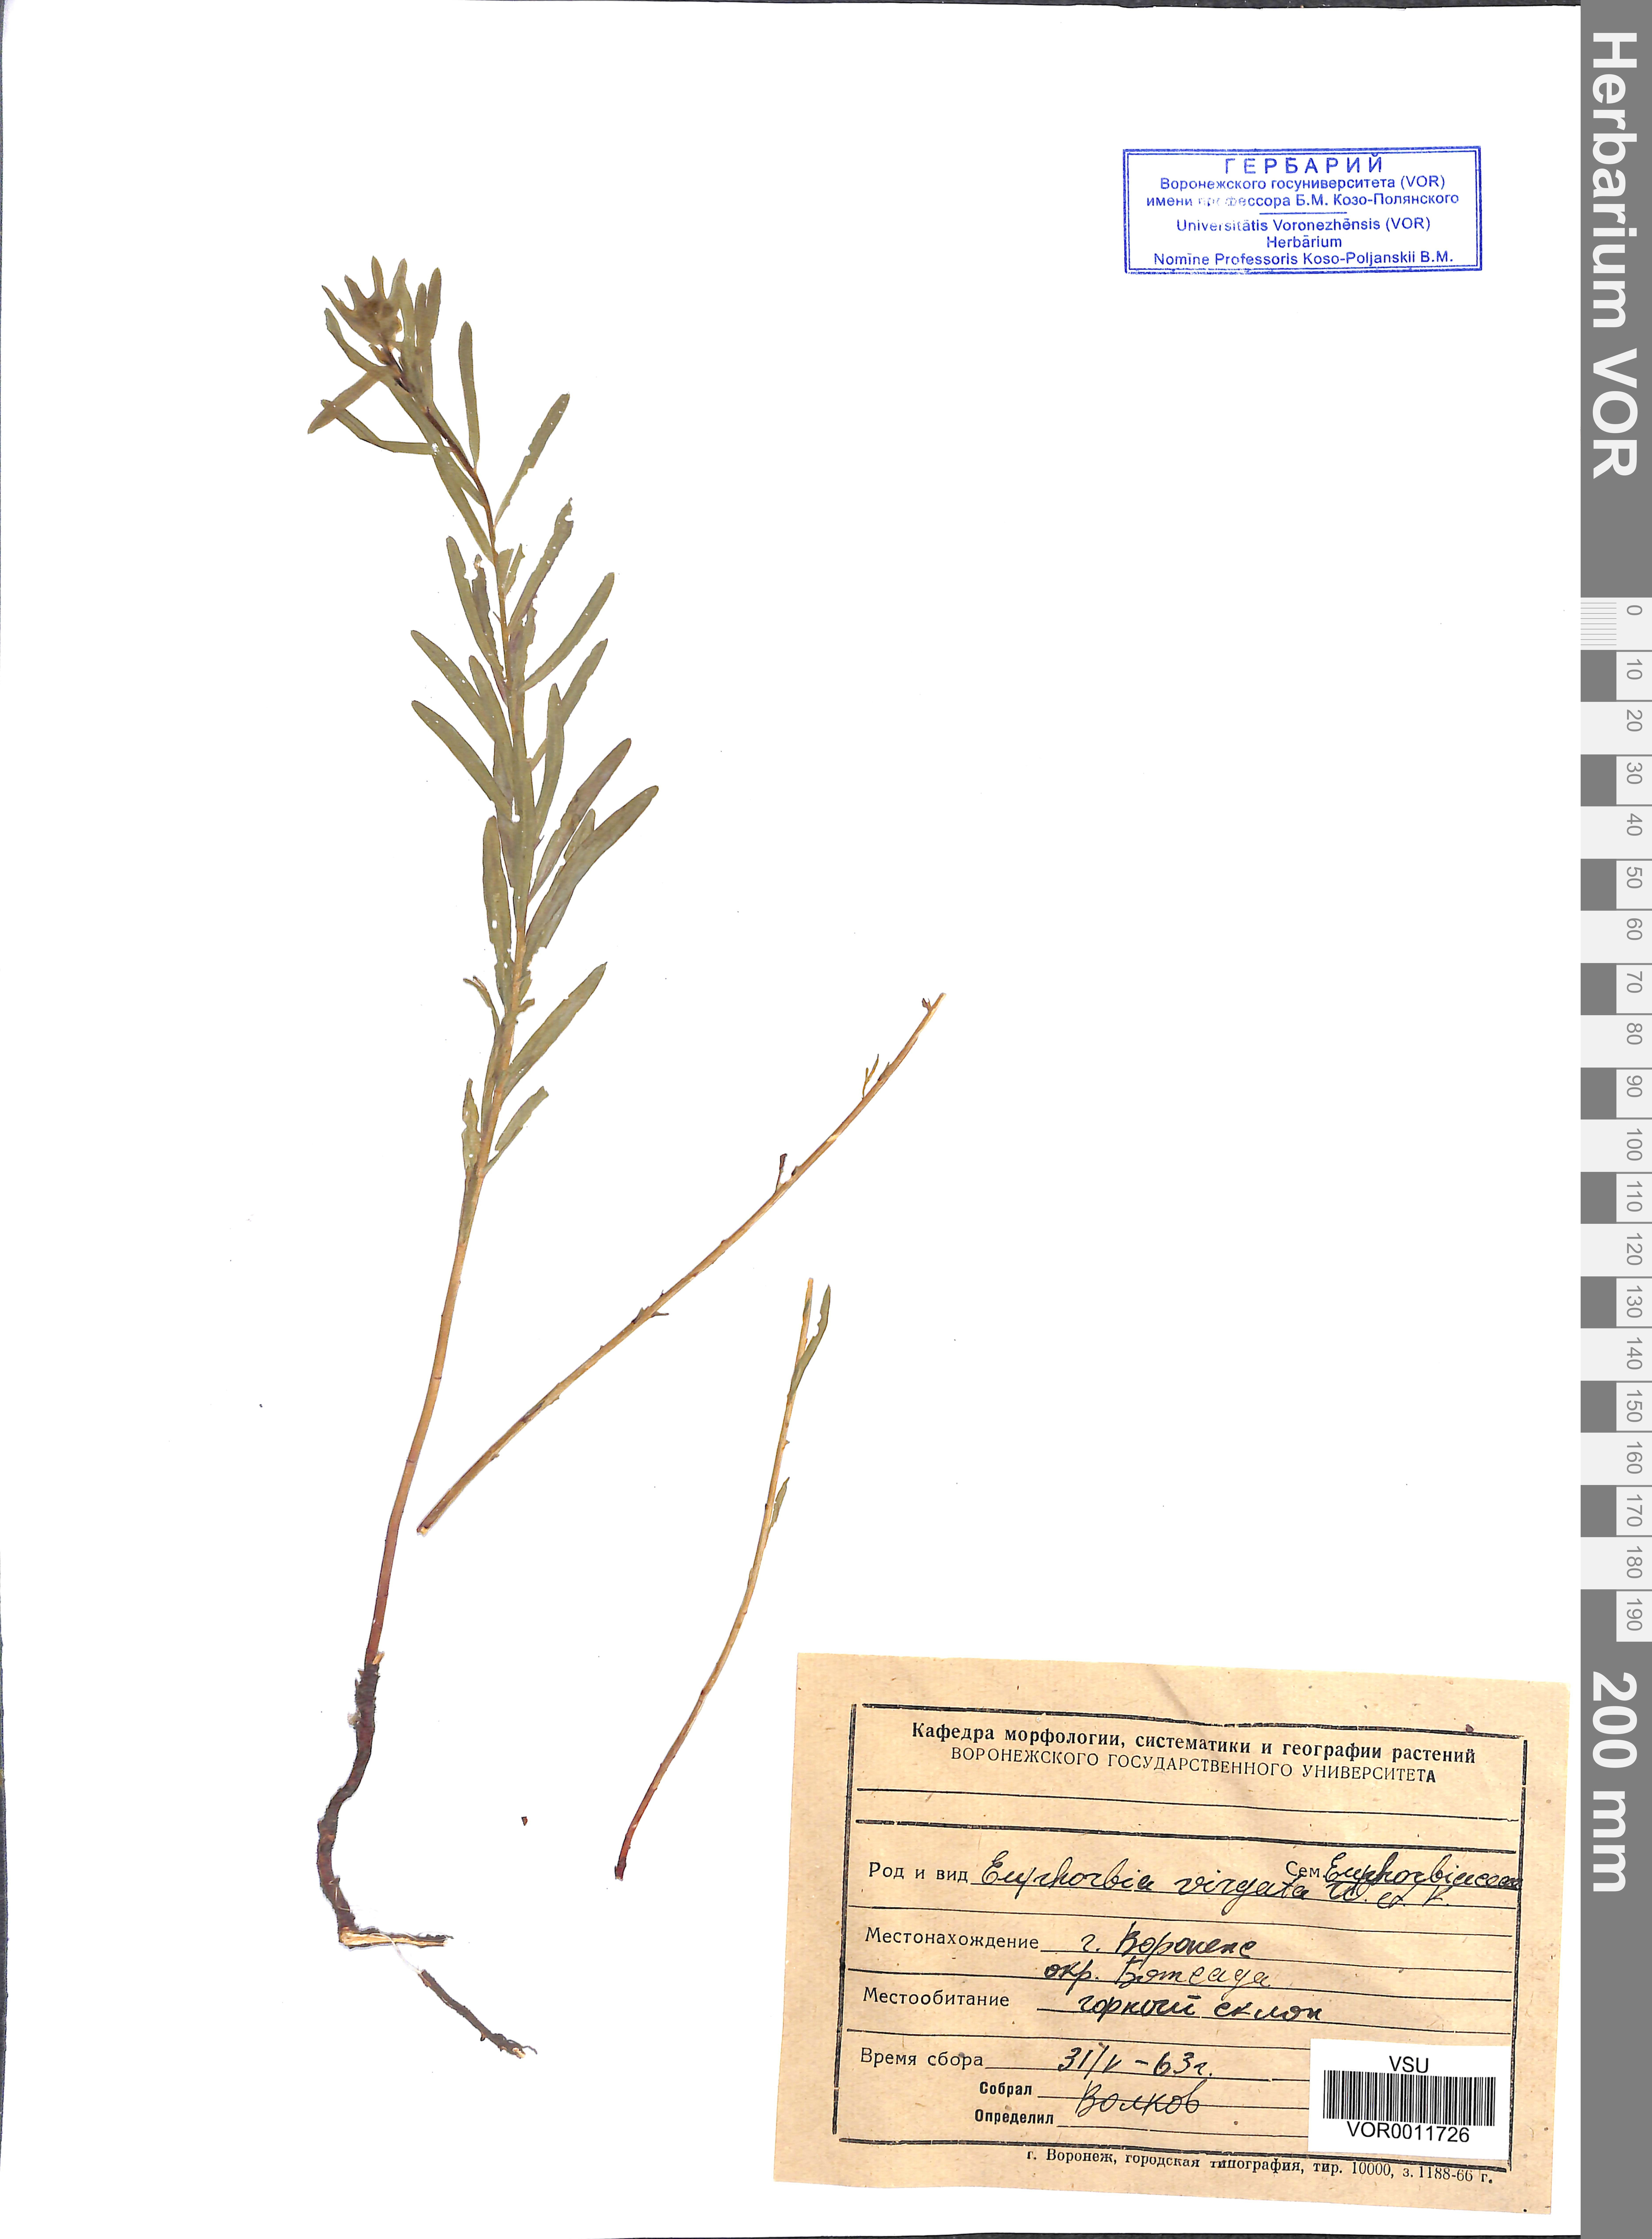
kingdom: Plantae
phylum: Tracheophyta
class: Magnoliopsida
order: Malpighiales
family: Euphorbiaceae
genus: Euphorbia
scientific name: Euphorbia virgata
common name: Leafy spurge
